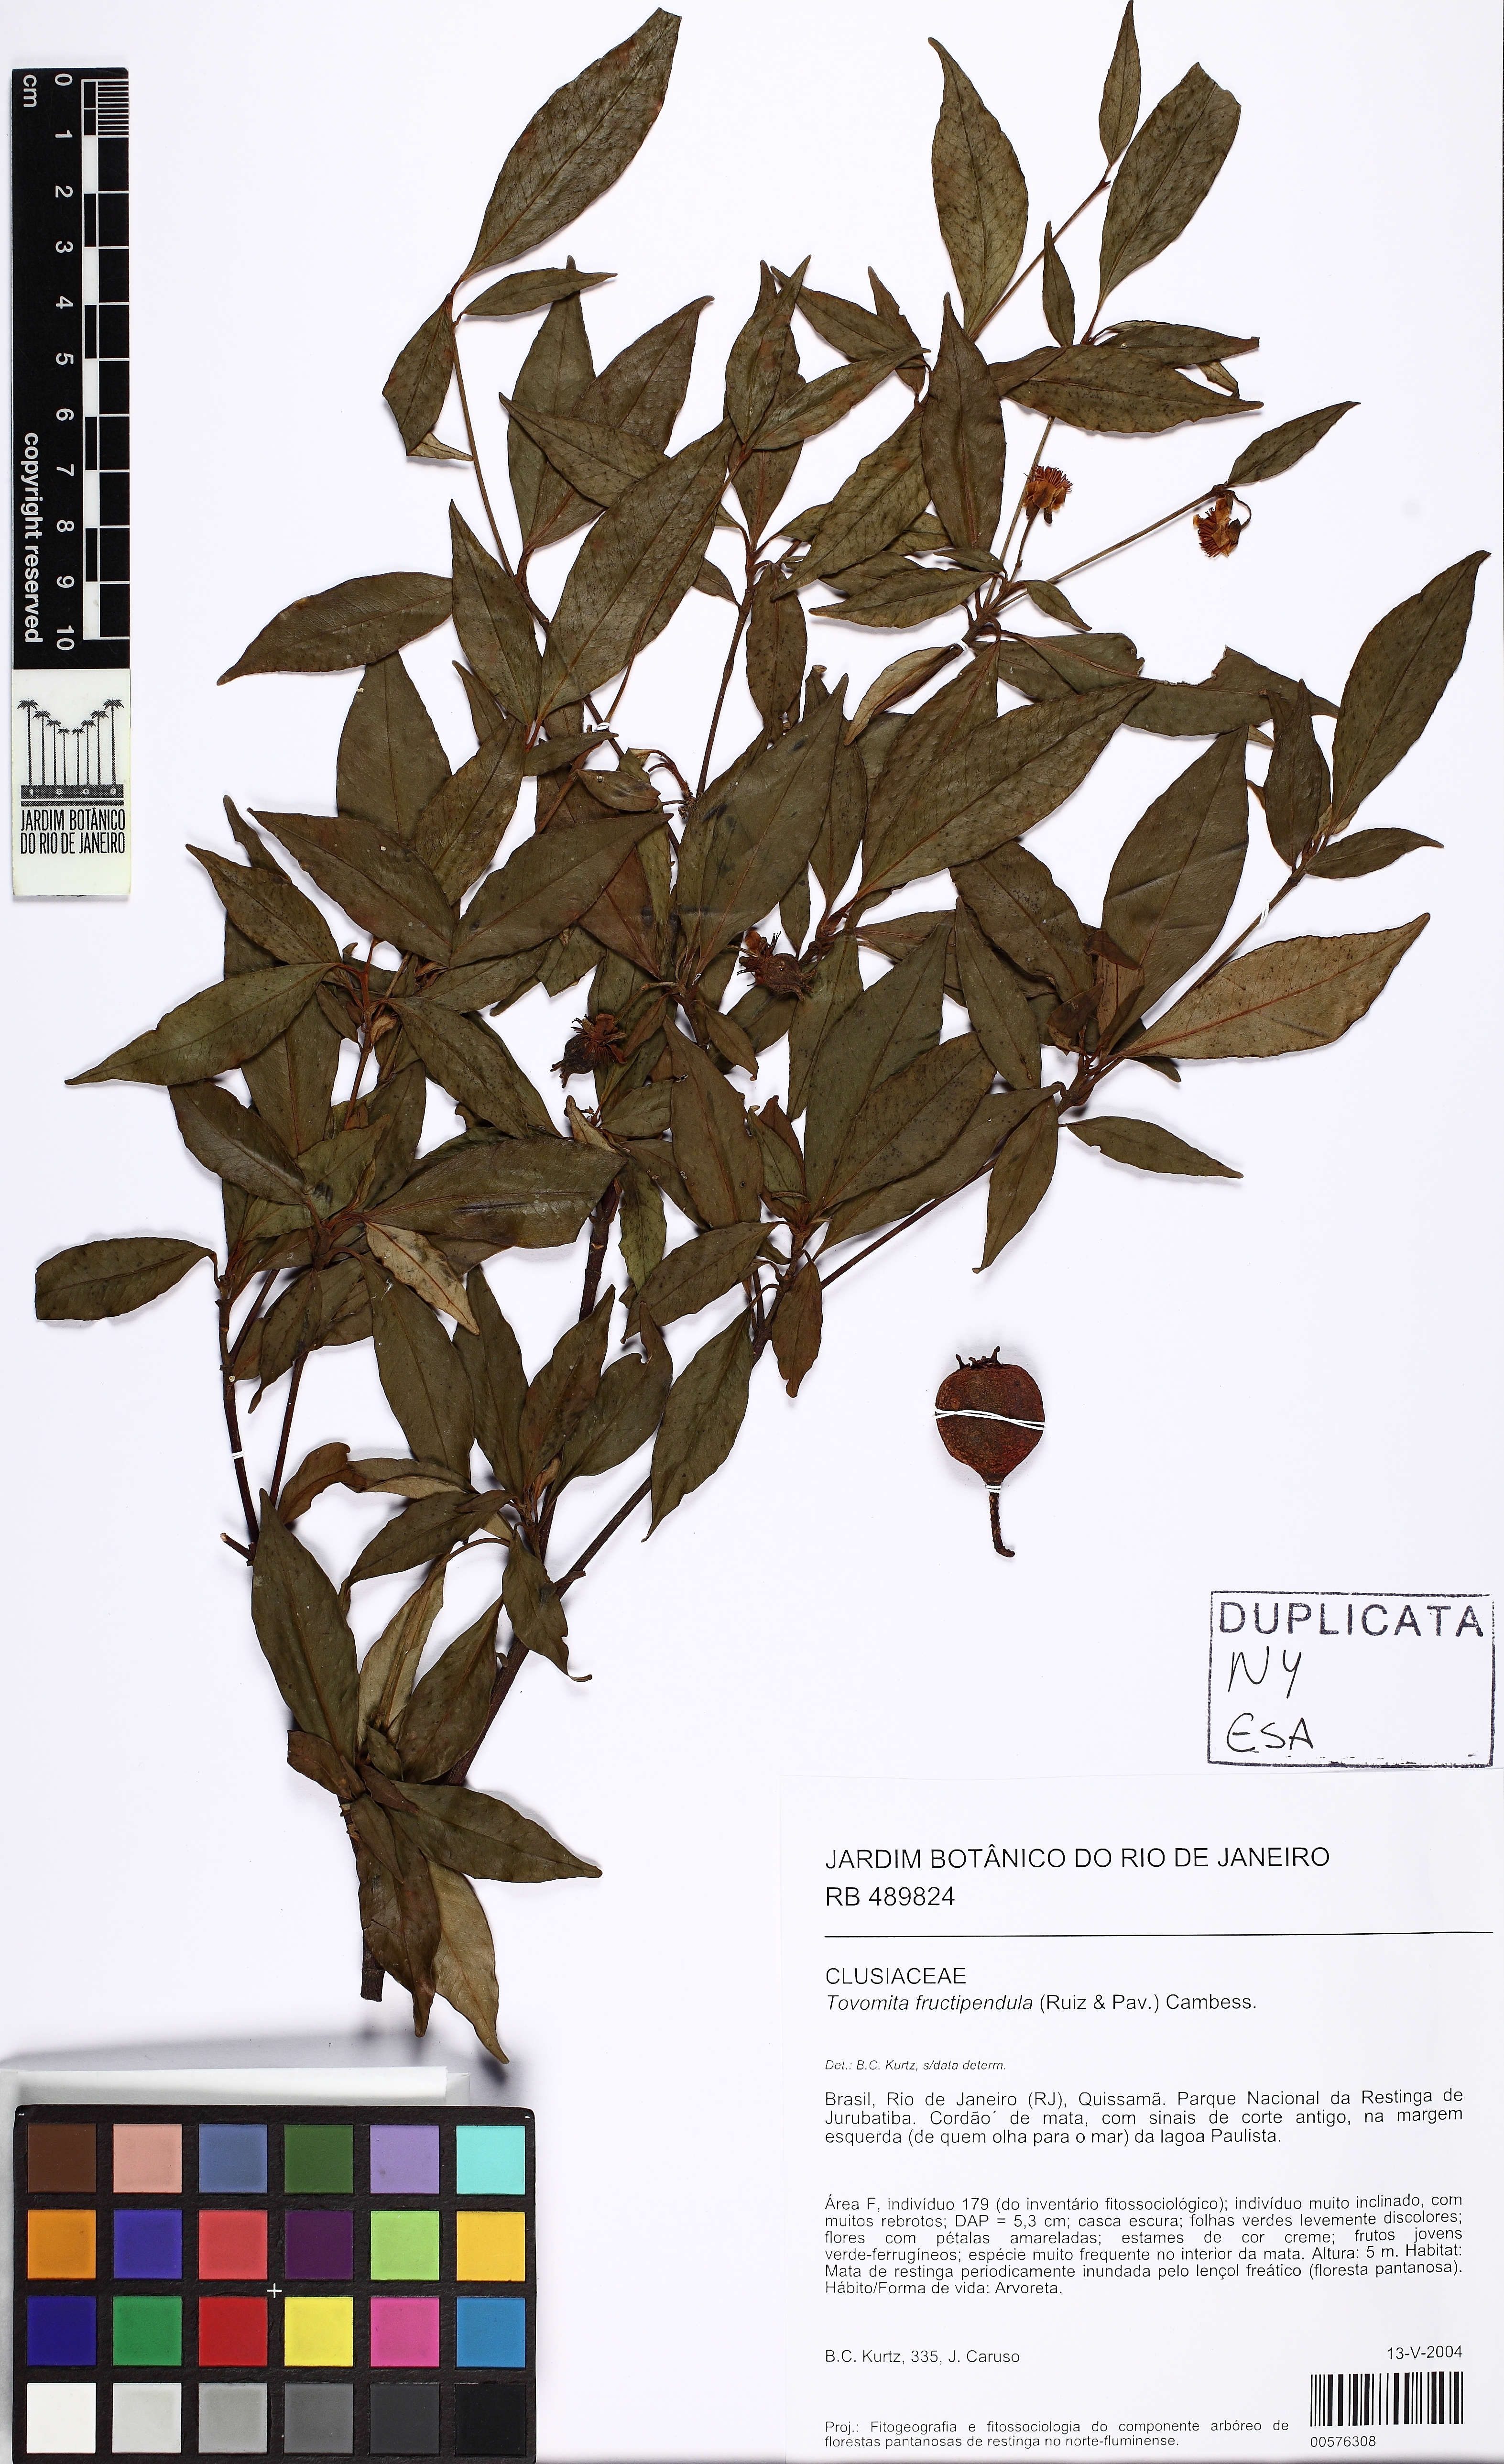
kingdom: Plantae
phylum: Tracheophyta
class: Magnoliopsida
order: Malpighiales
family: Clusiaceae
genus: Tovomita
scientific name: Tovomita fructipendula
